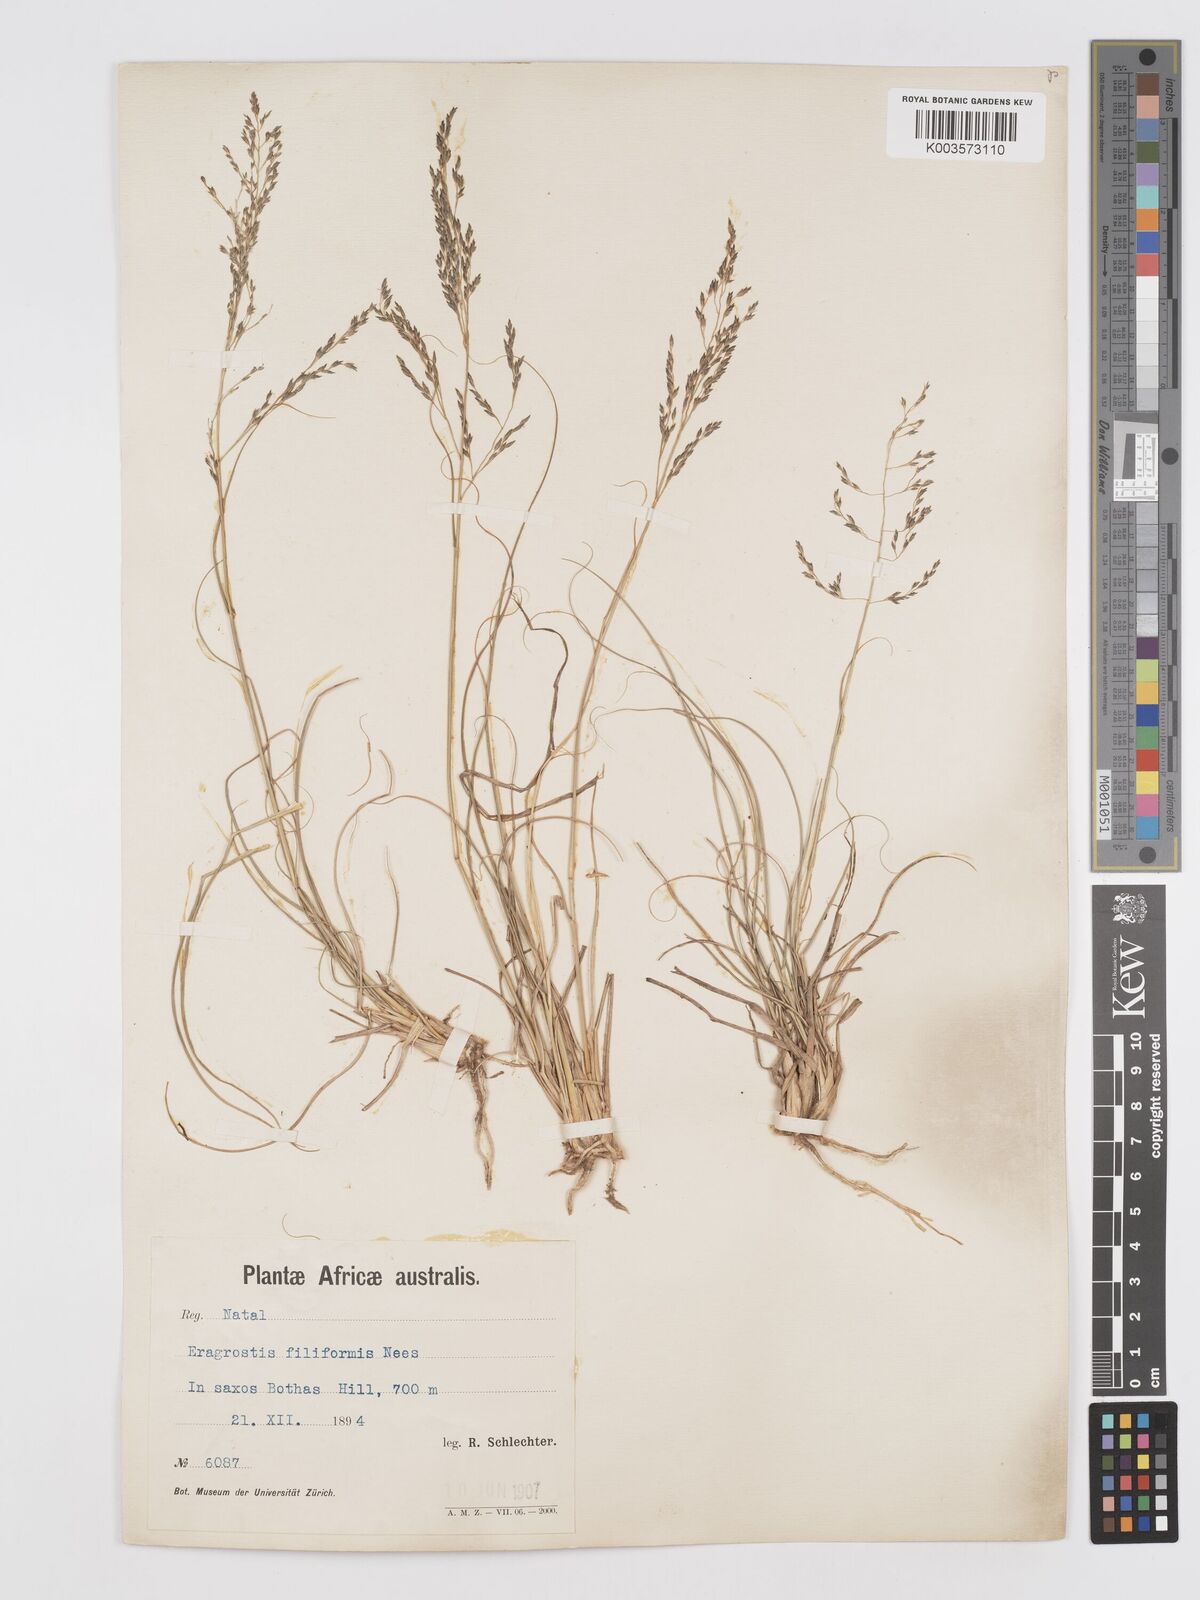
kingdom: Plantae
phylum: Tracheophyta
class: Liliopsida
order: Poales
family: Poaceae
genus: Eragrostis
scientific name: Eragrostis curvula
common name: African love-grass
